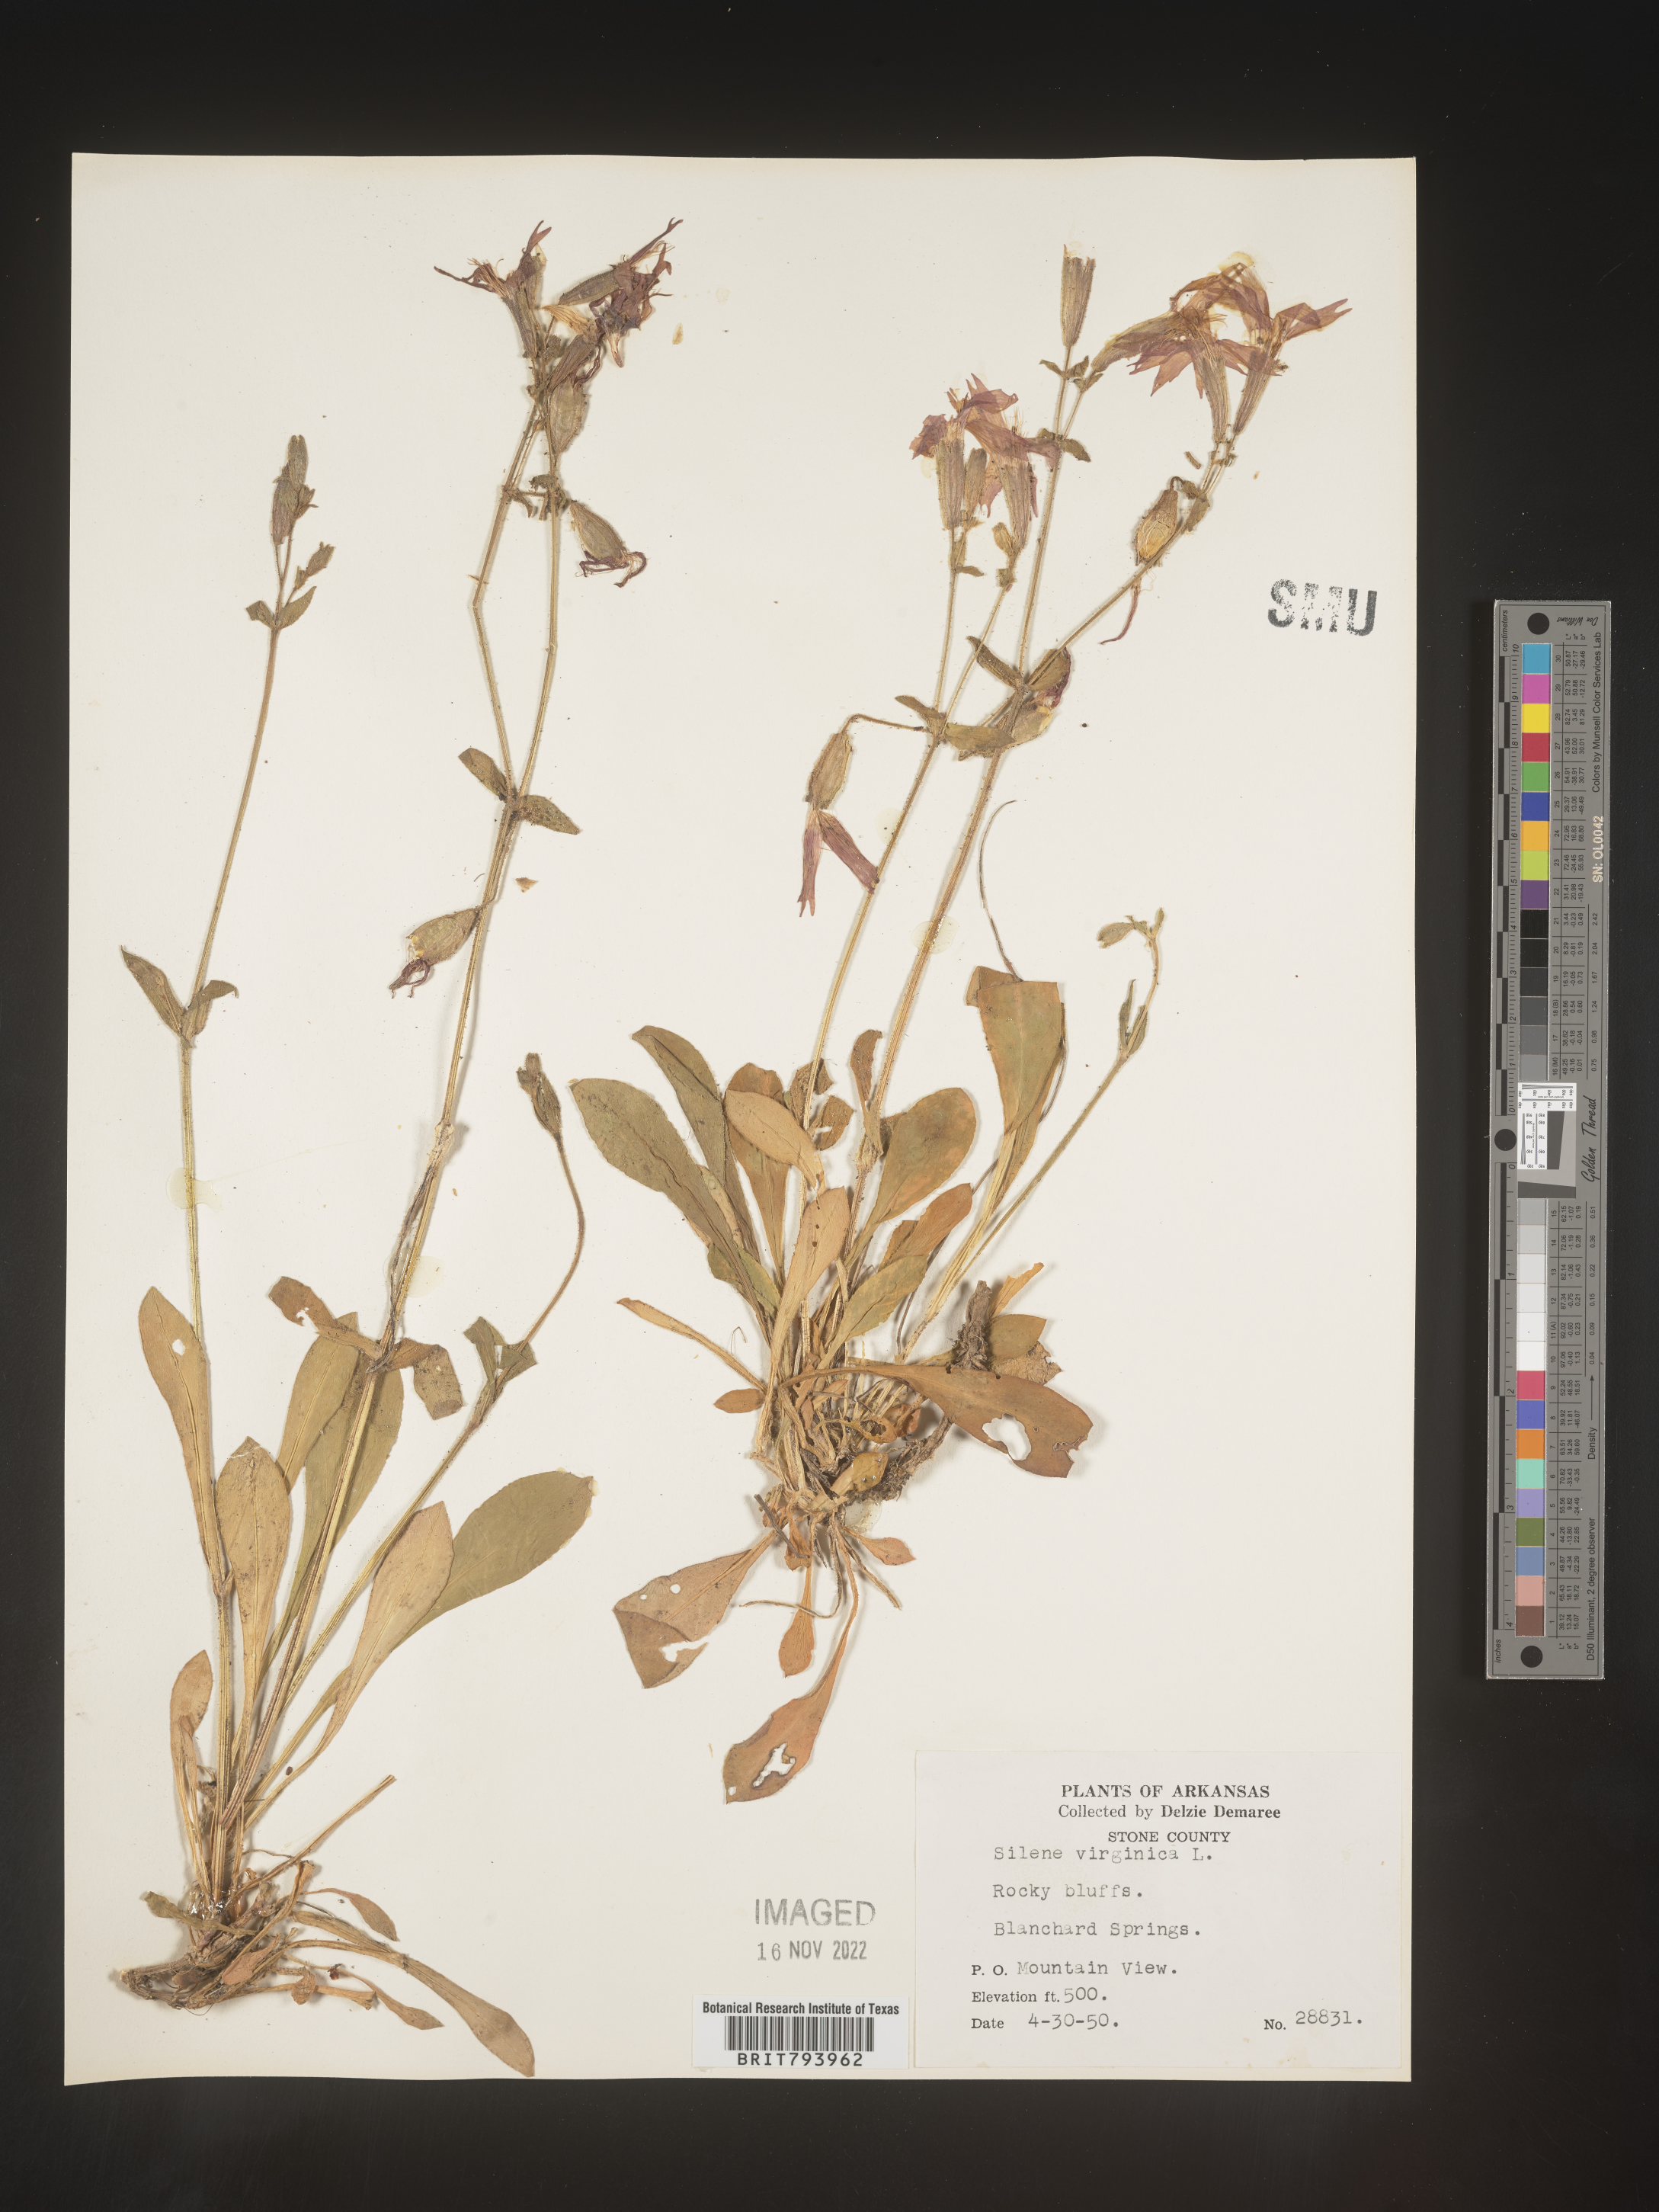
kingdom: Plantae
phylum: Tracheophyta
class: Magnoliopsida
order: Caryophyllales
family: Caryophyllaceae
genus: Silene
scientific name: Silene virginica
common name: Fire-pink
